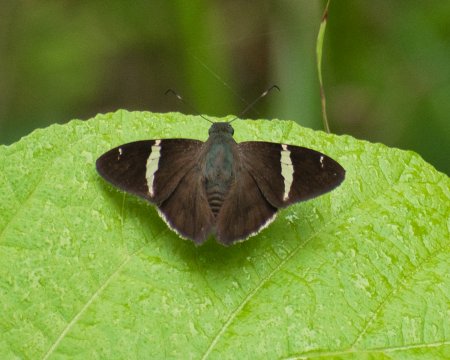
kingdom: Animalia
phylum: Arthropoda
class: Insecta
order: Lepidoptera
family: Hesperiidae
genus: Autochton
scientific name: Autochton bipunctatus
